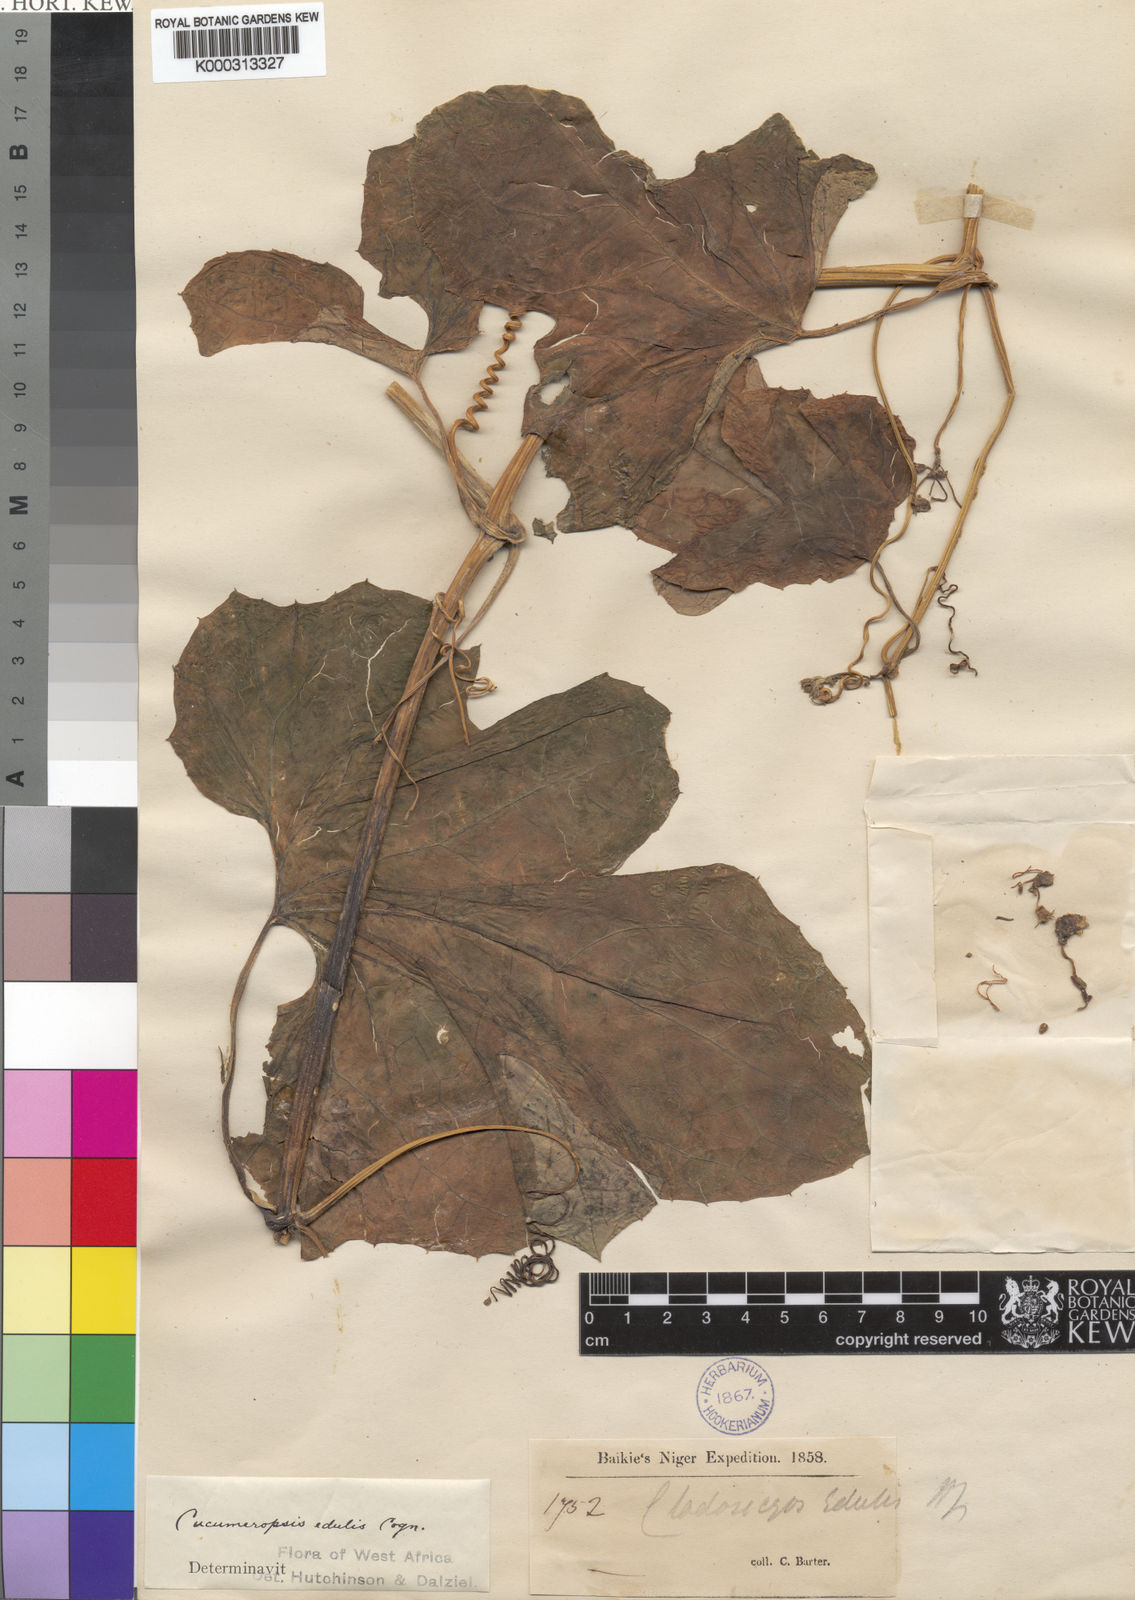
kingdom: Plantae
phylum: Tracheophyta
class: Magnoliopsida
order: Cucurbitales
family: Cucurbitaceae
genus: Melothria
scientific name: Melothria sphaerocarpa
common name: Egusi-itoo
